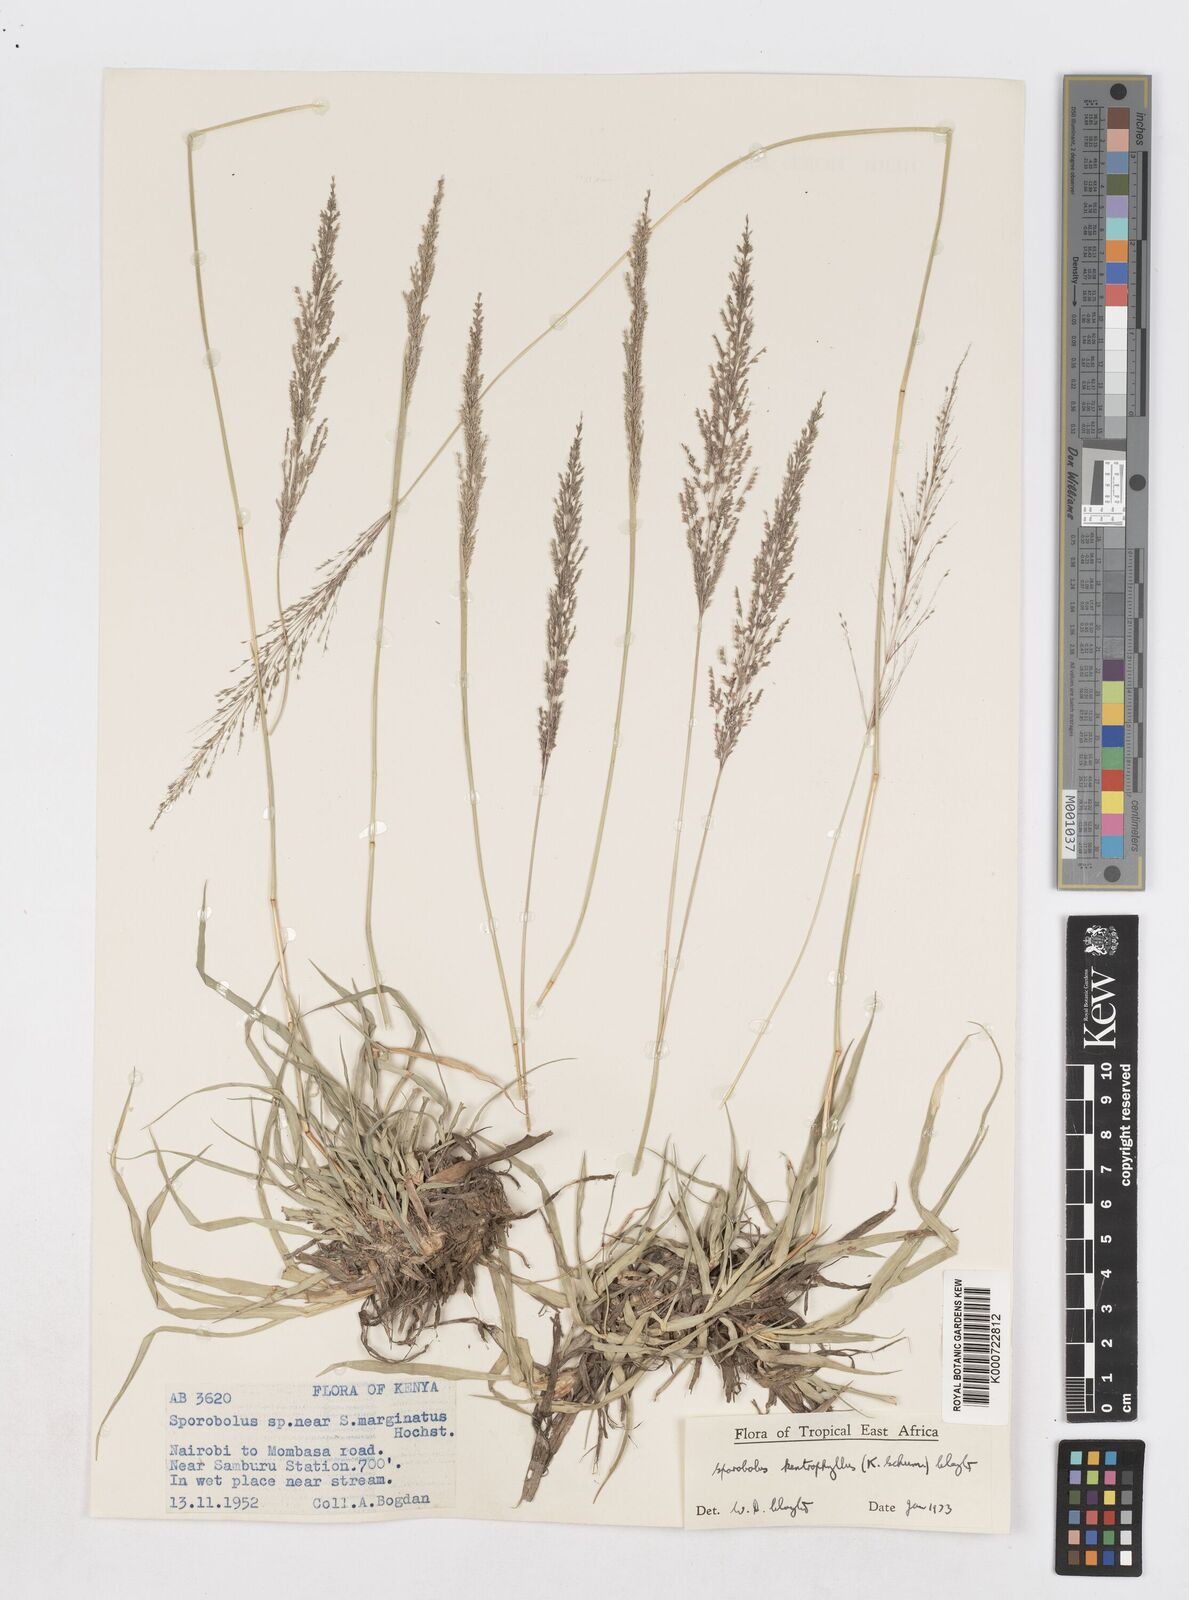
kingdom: Plantae
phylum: Tracheophyta
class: Liliopsida
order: Poales
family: Poaceae
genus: Sporobolus
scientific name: Sporobolus ioclados
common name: Pan dropseed
